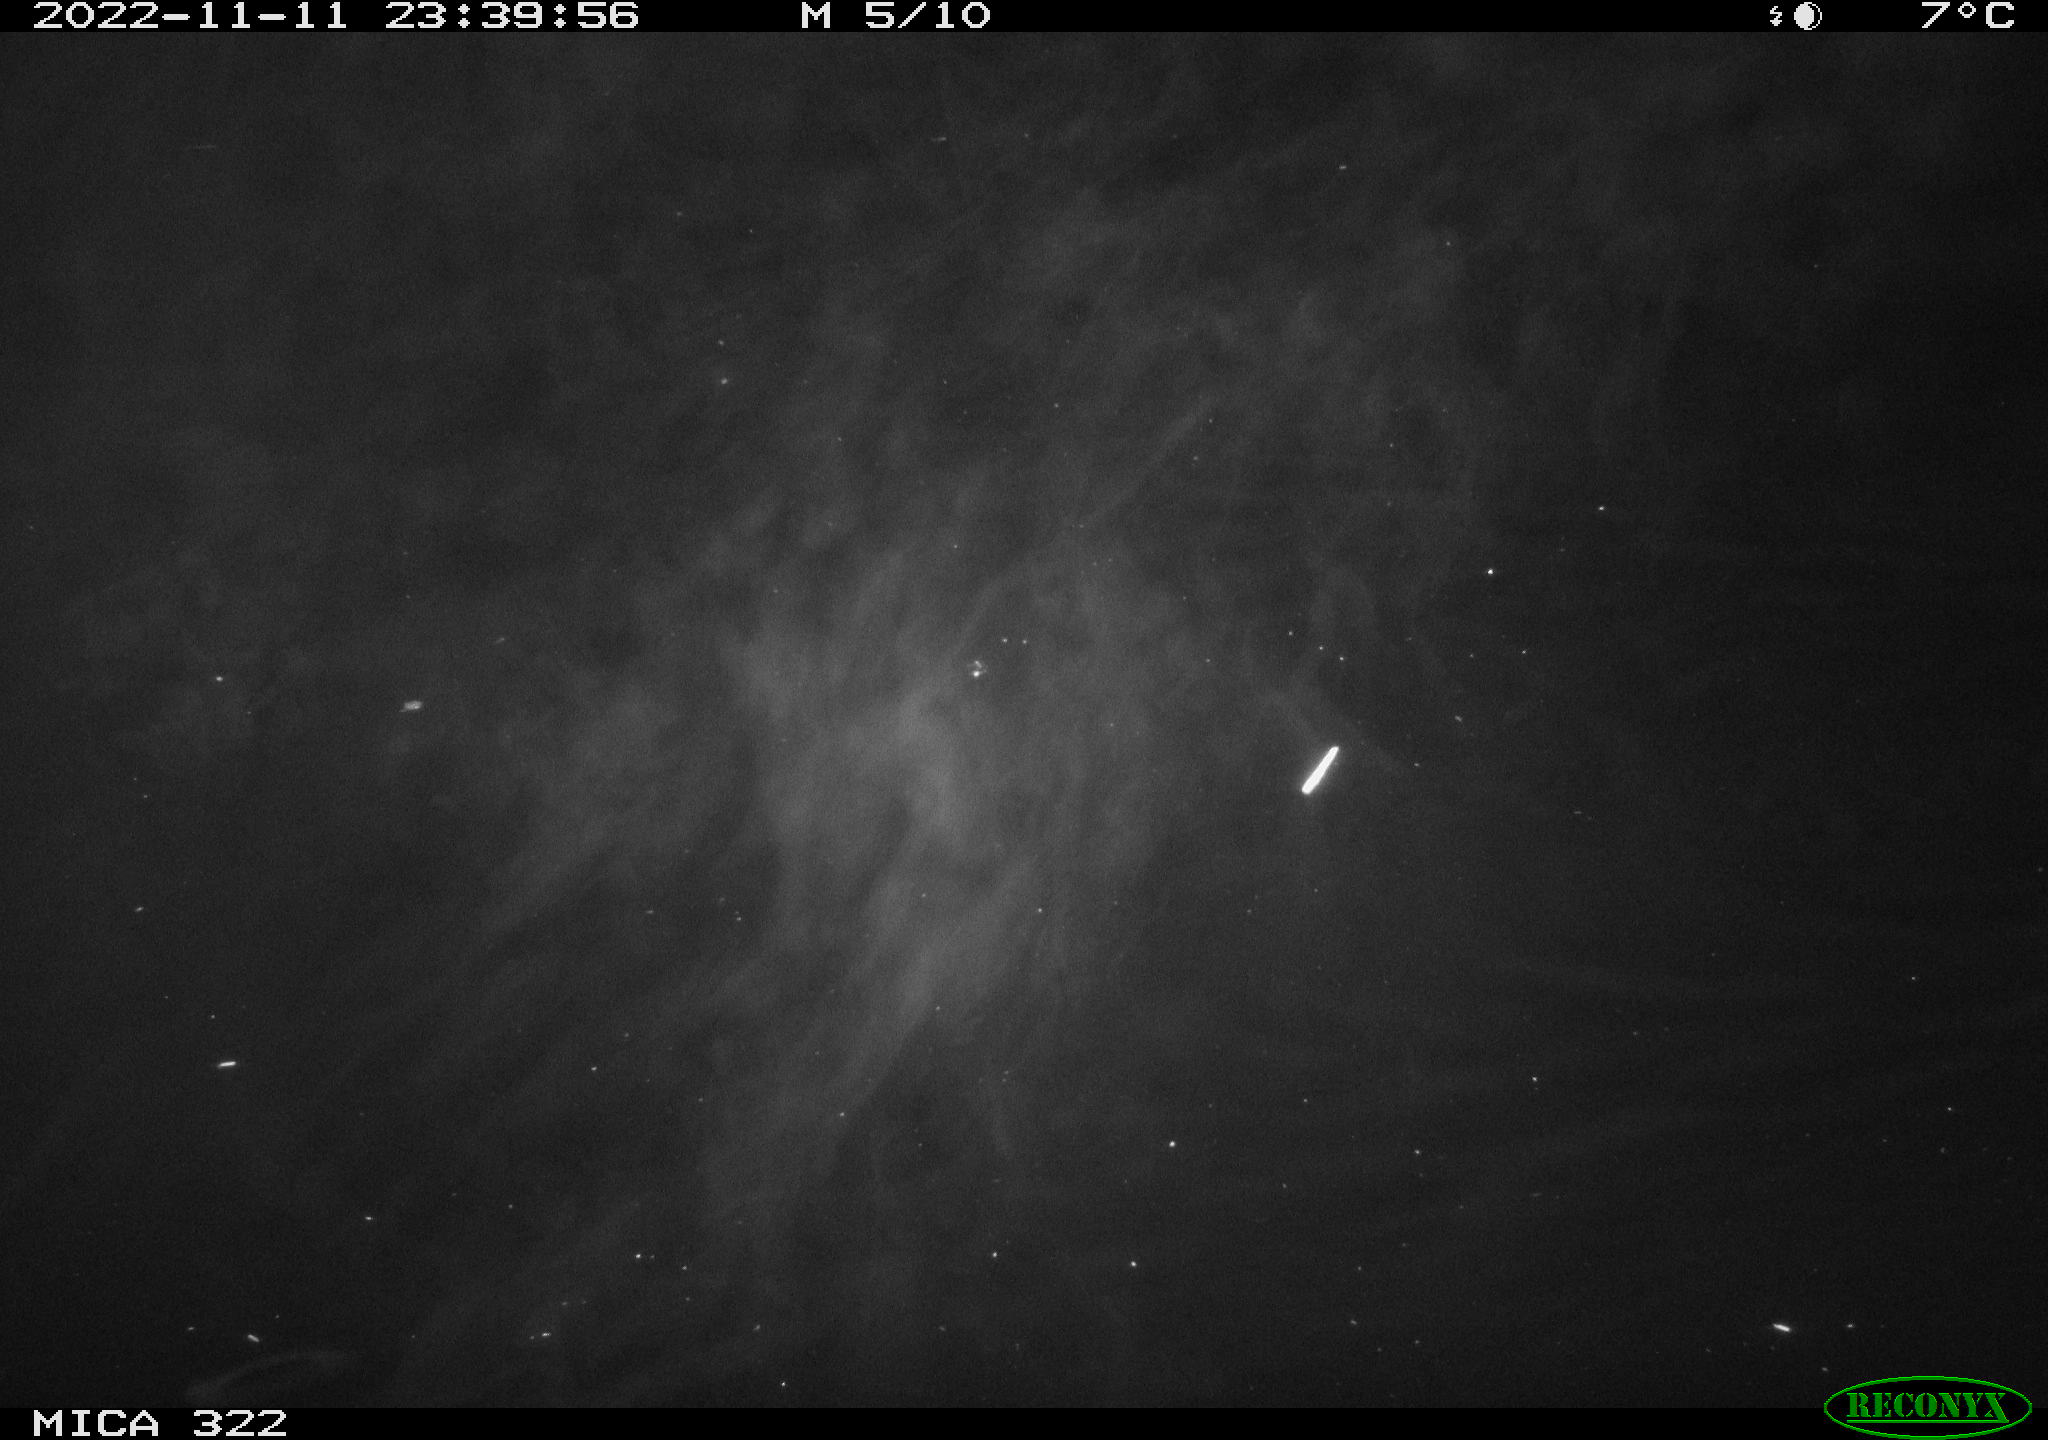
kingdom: Animalia
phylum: Chordata
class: Mammalia
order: Rodentia
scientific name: Rodentia
